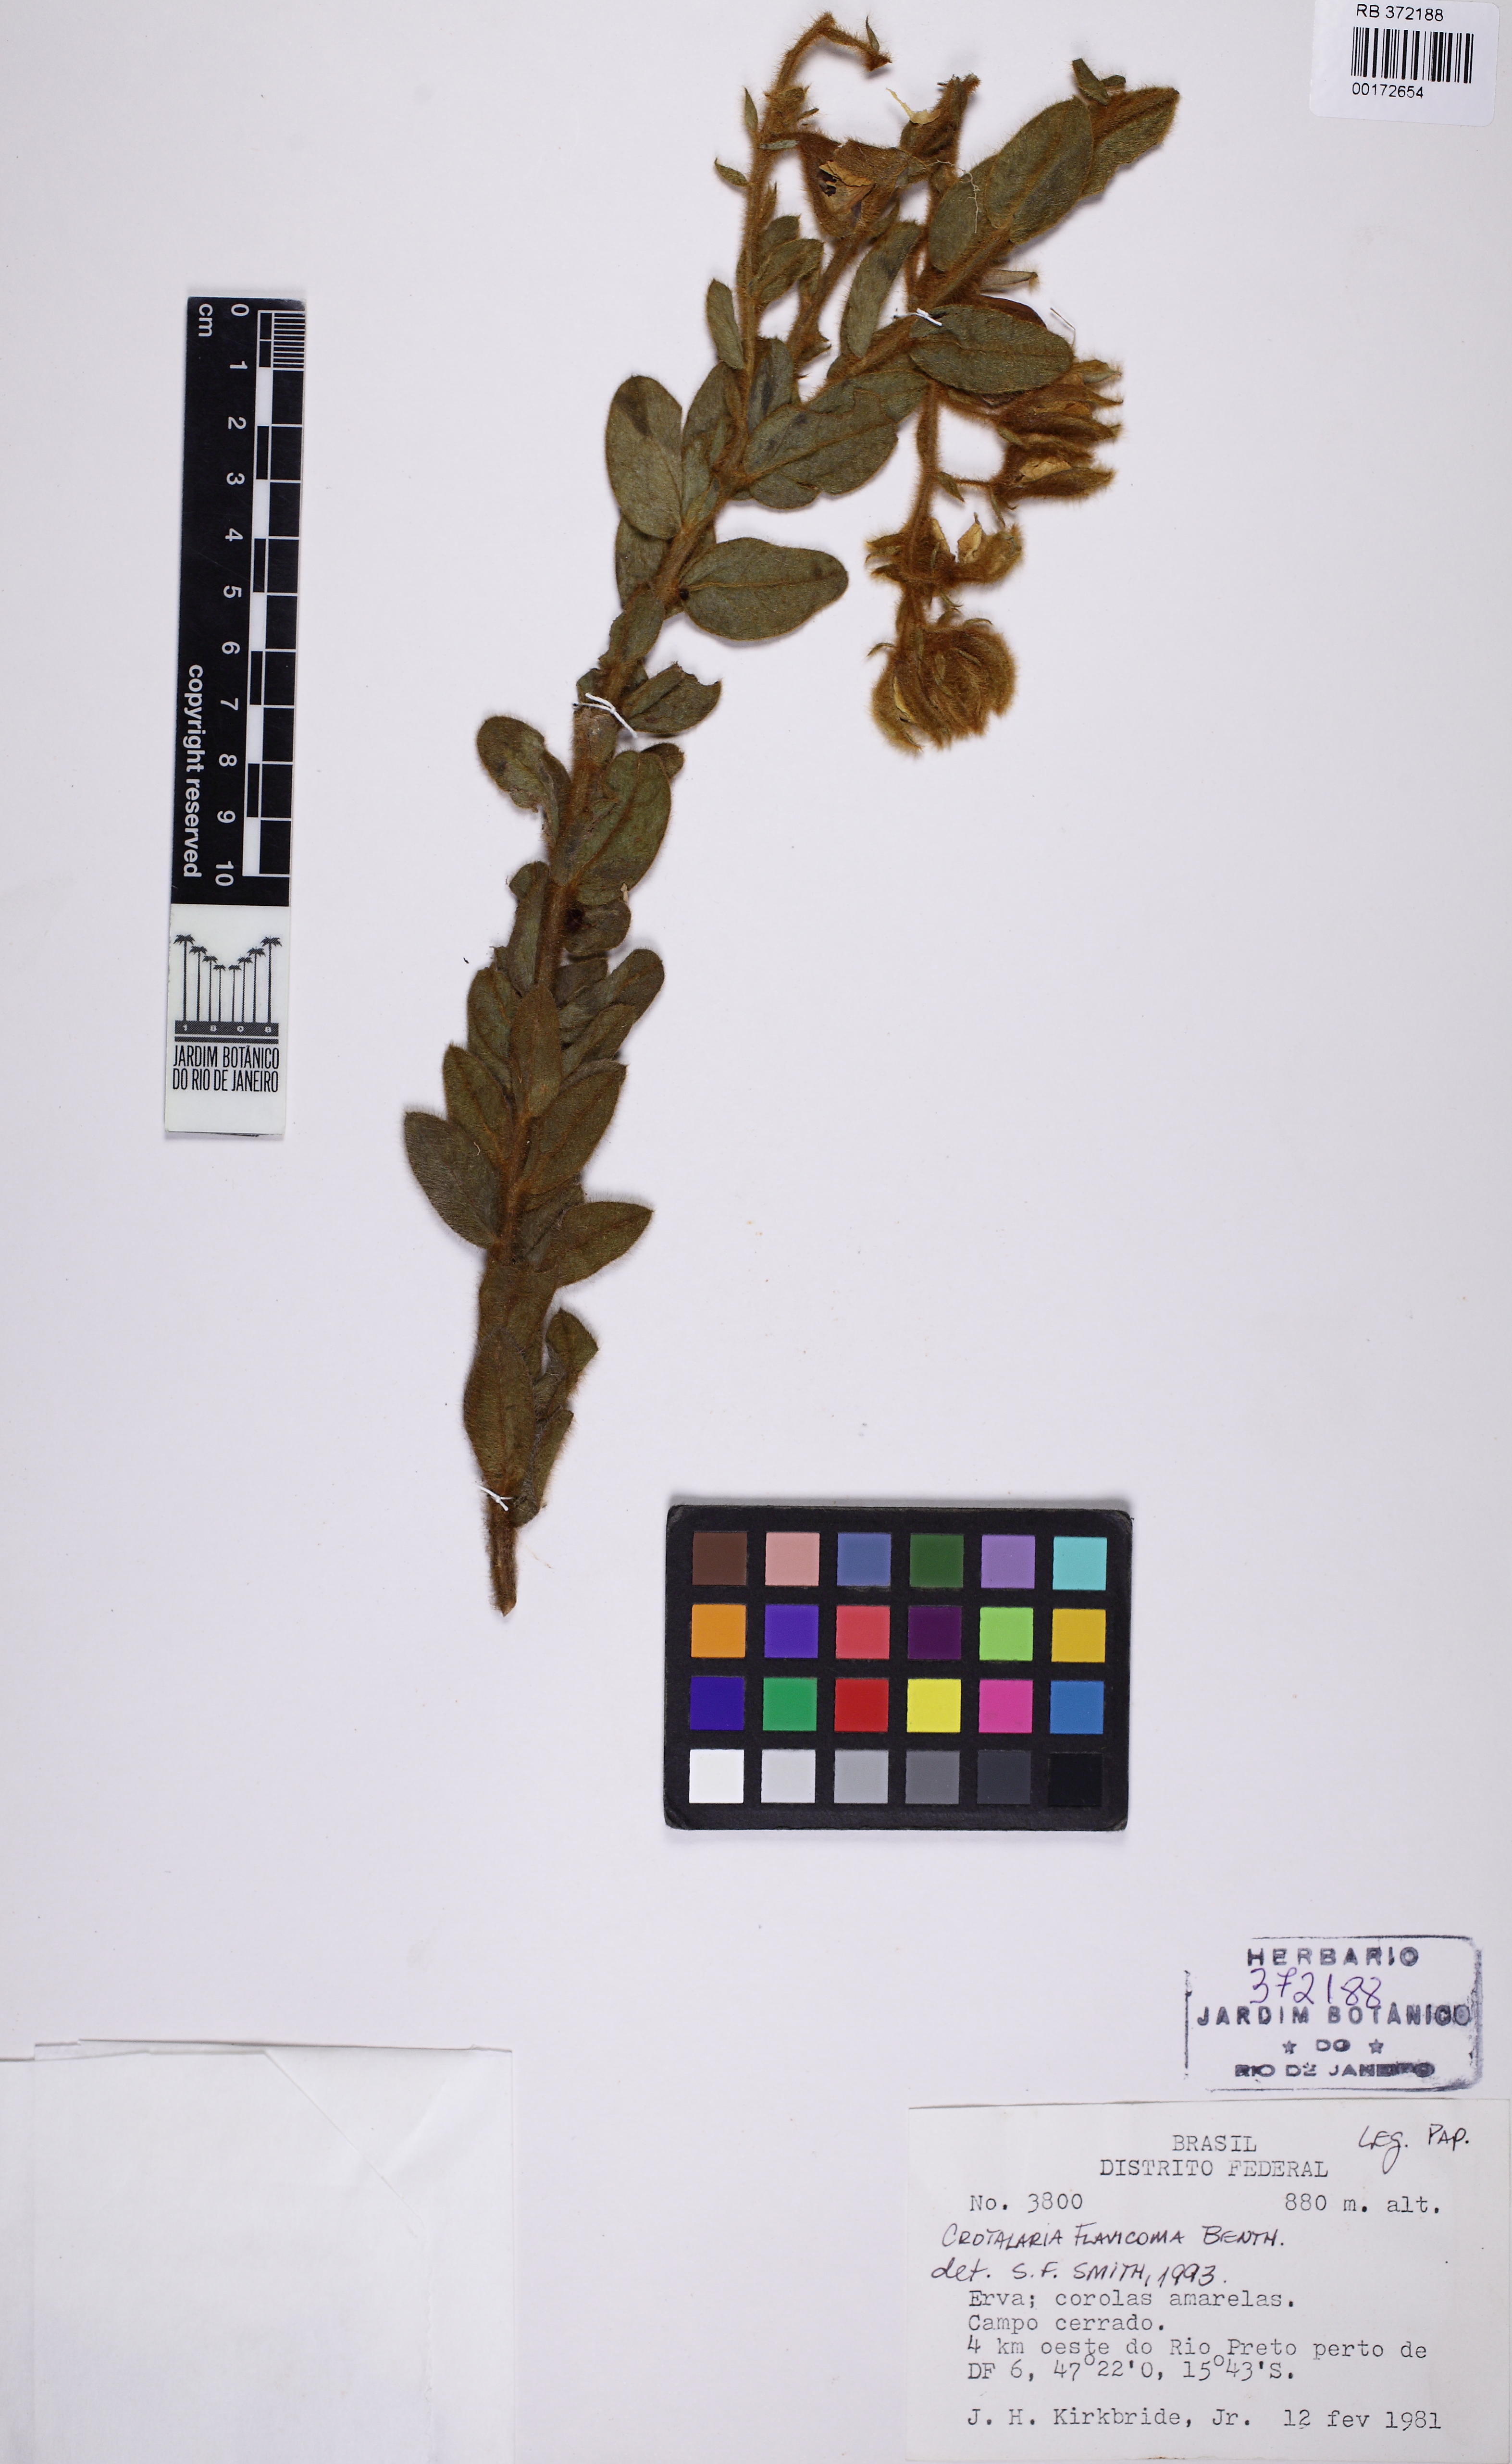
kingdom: Plantae
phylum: Tracheophyta
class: Magnoliopsida
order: Fabales
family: Fabaceae
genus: Crotalaria
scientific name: Crotalaria flavicoma
